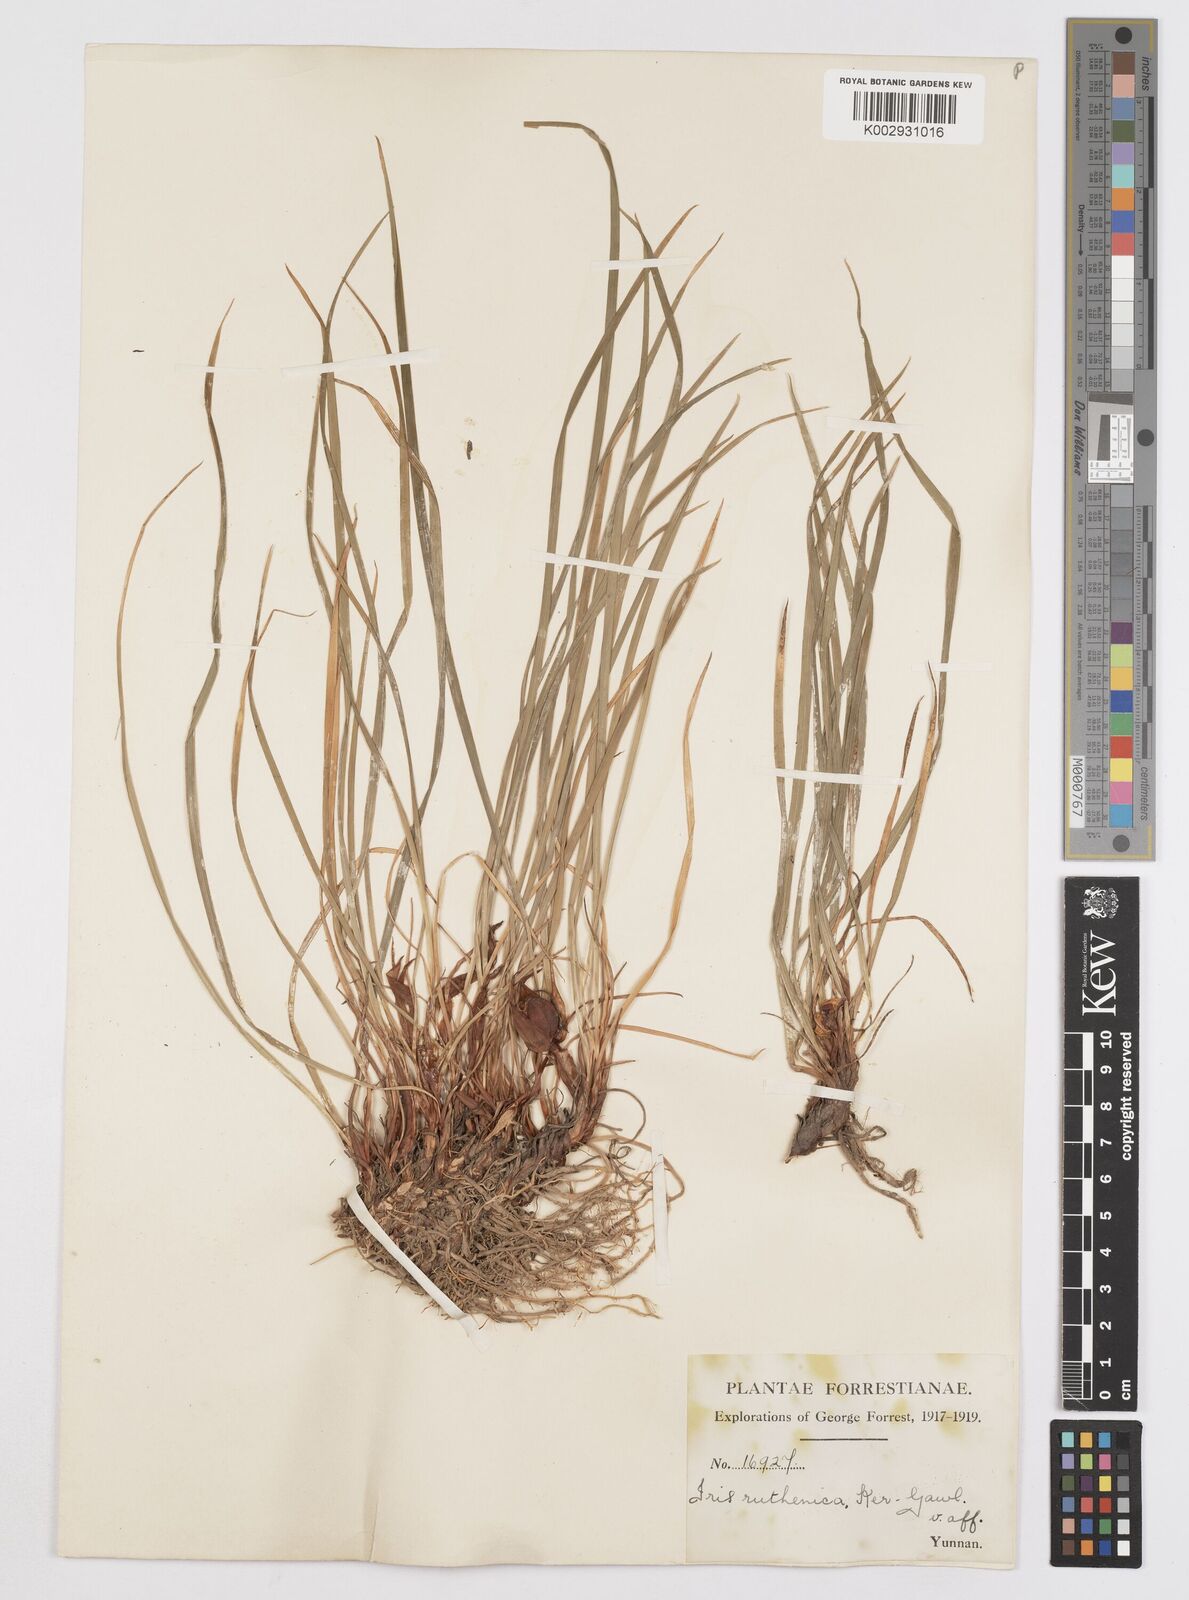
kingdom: Plantae
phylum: Tracheophyta
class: Liliopsida
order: Asparagales
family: Iridaceae
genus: Iris
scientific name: Iris
